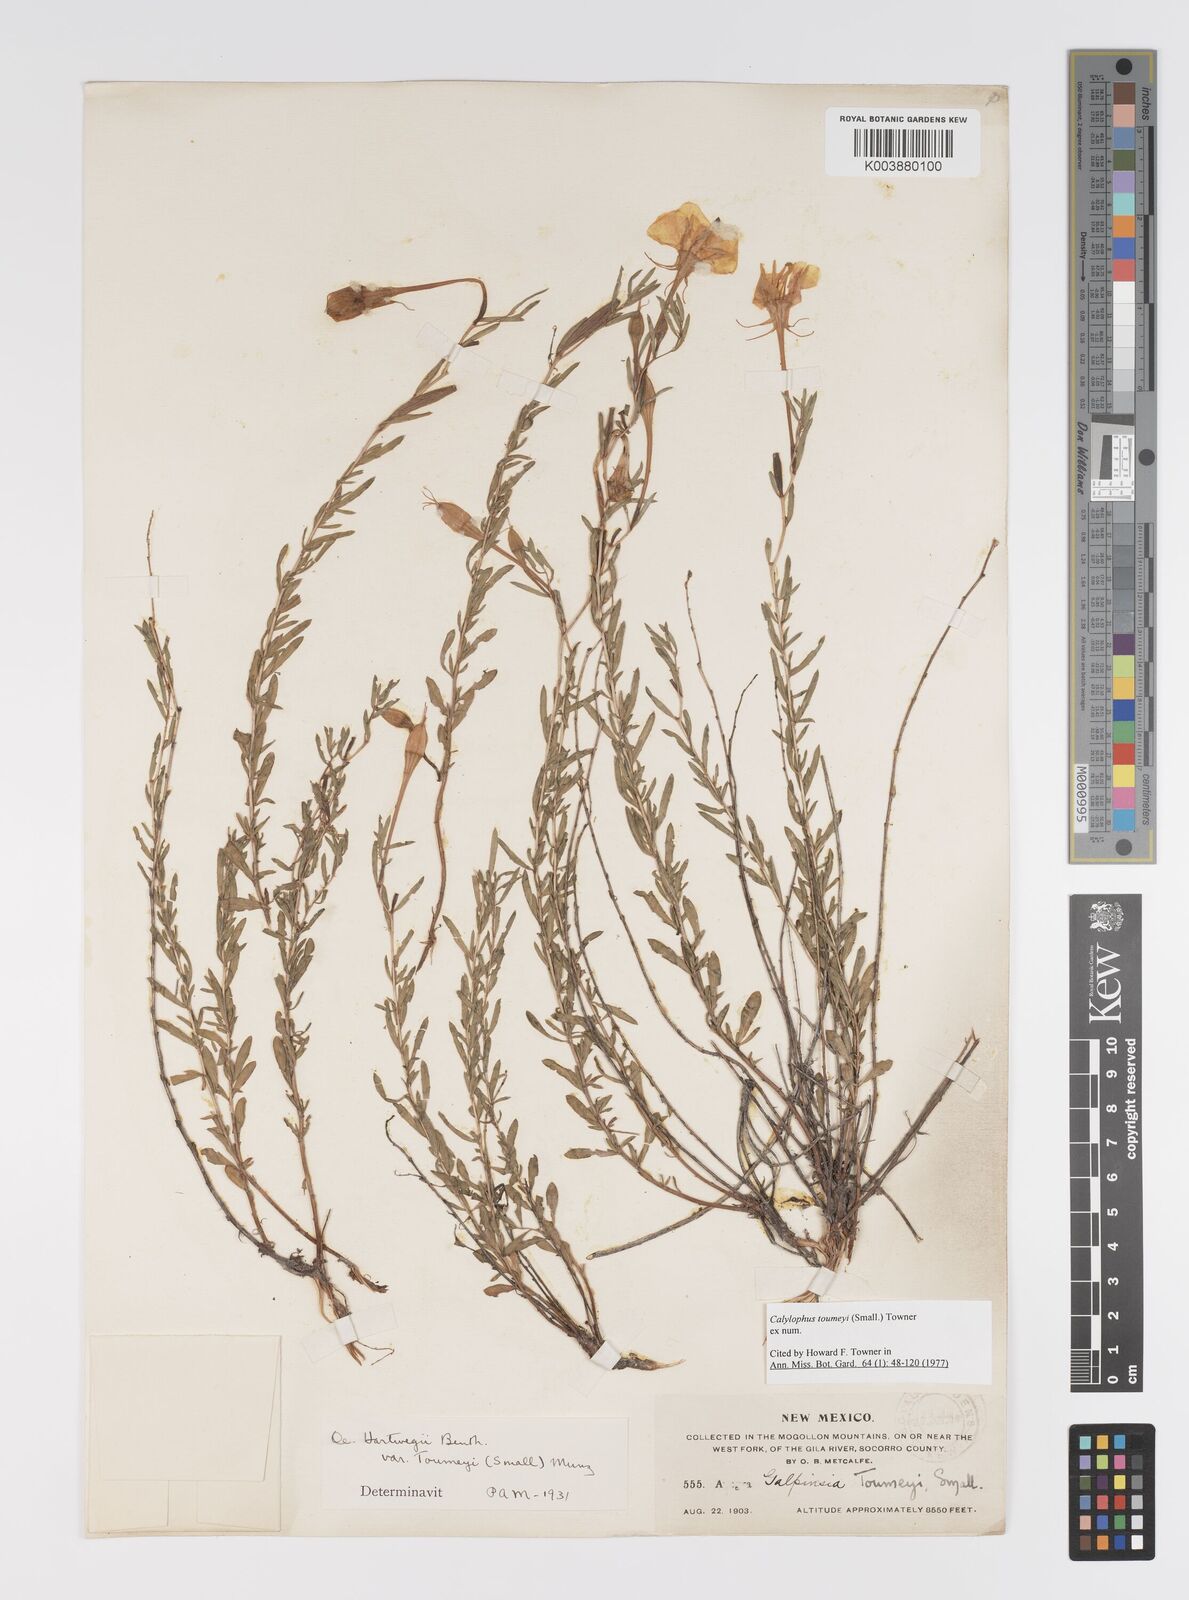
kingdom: Plantae
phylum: Tracheophyta
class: Magnoliopsida
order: Myrtales
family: Onagraceae
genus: Oenothera
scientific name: Oenothera toumeyi
